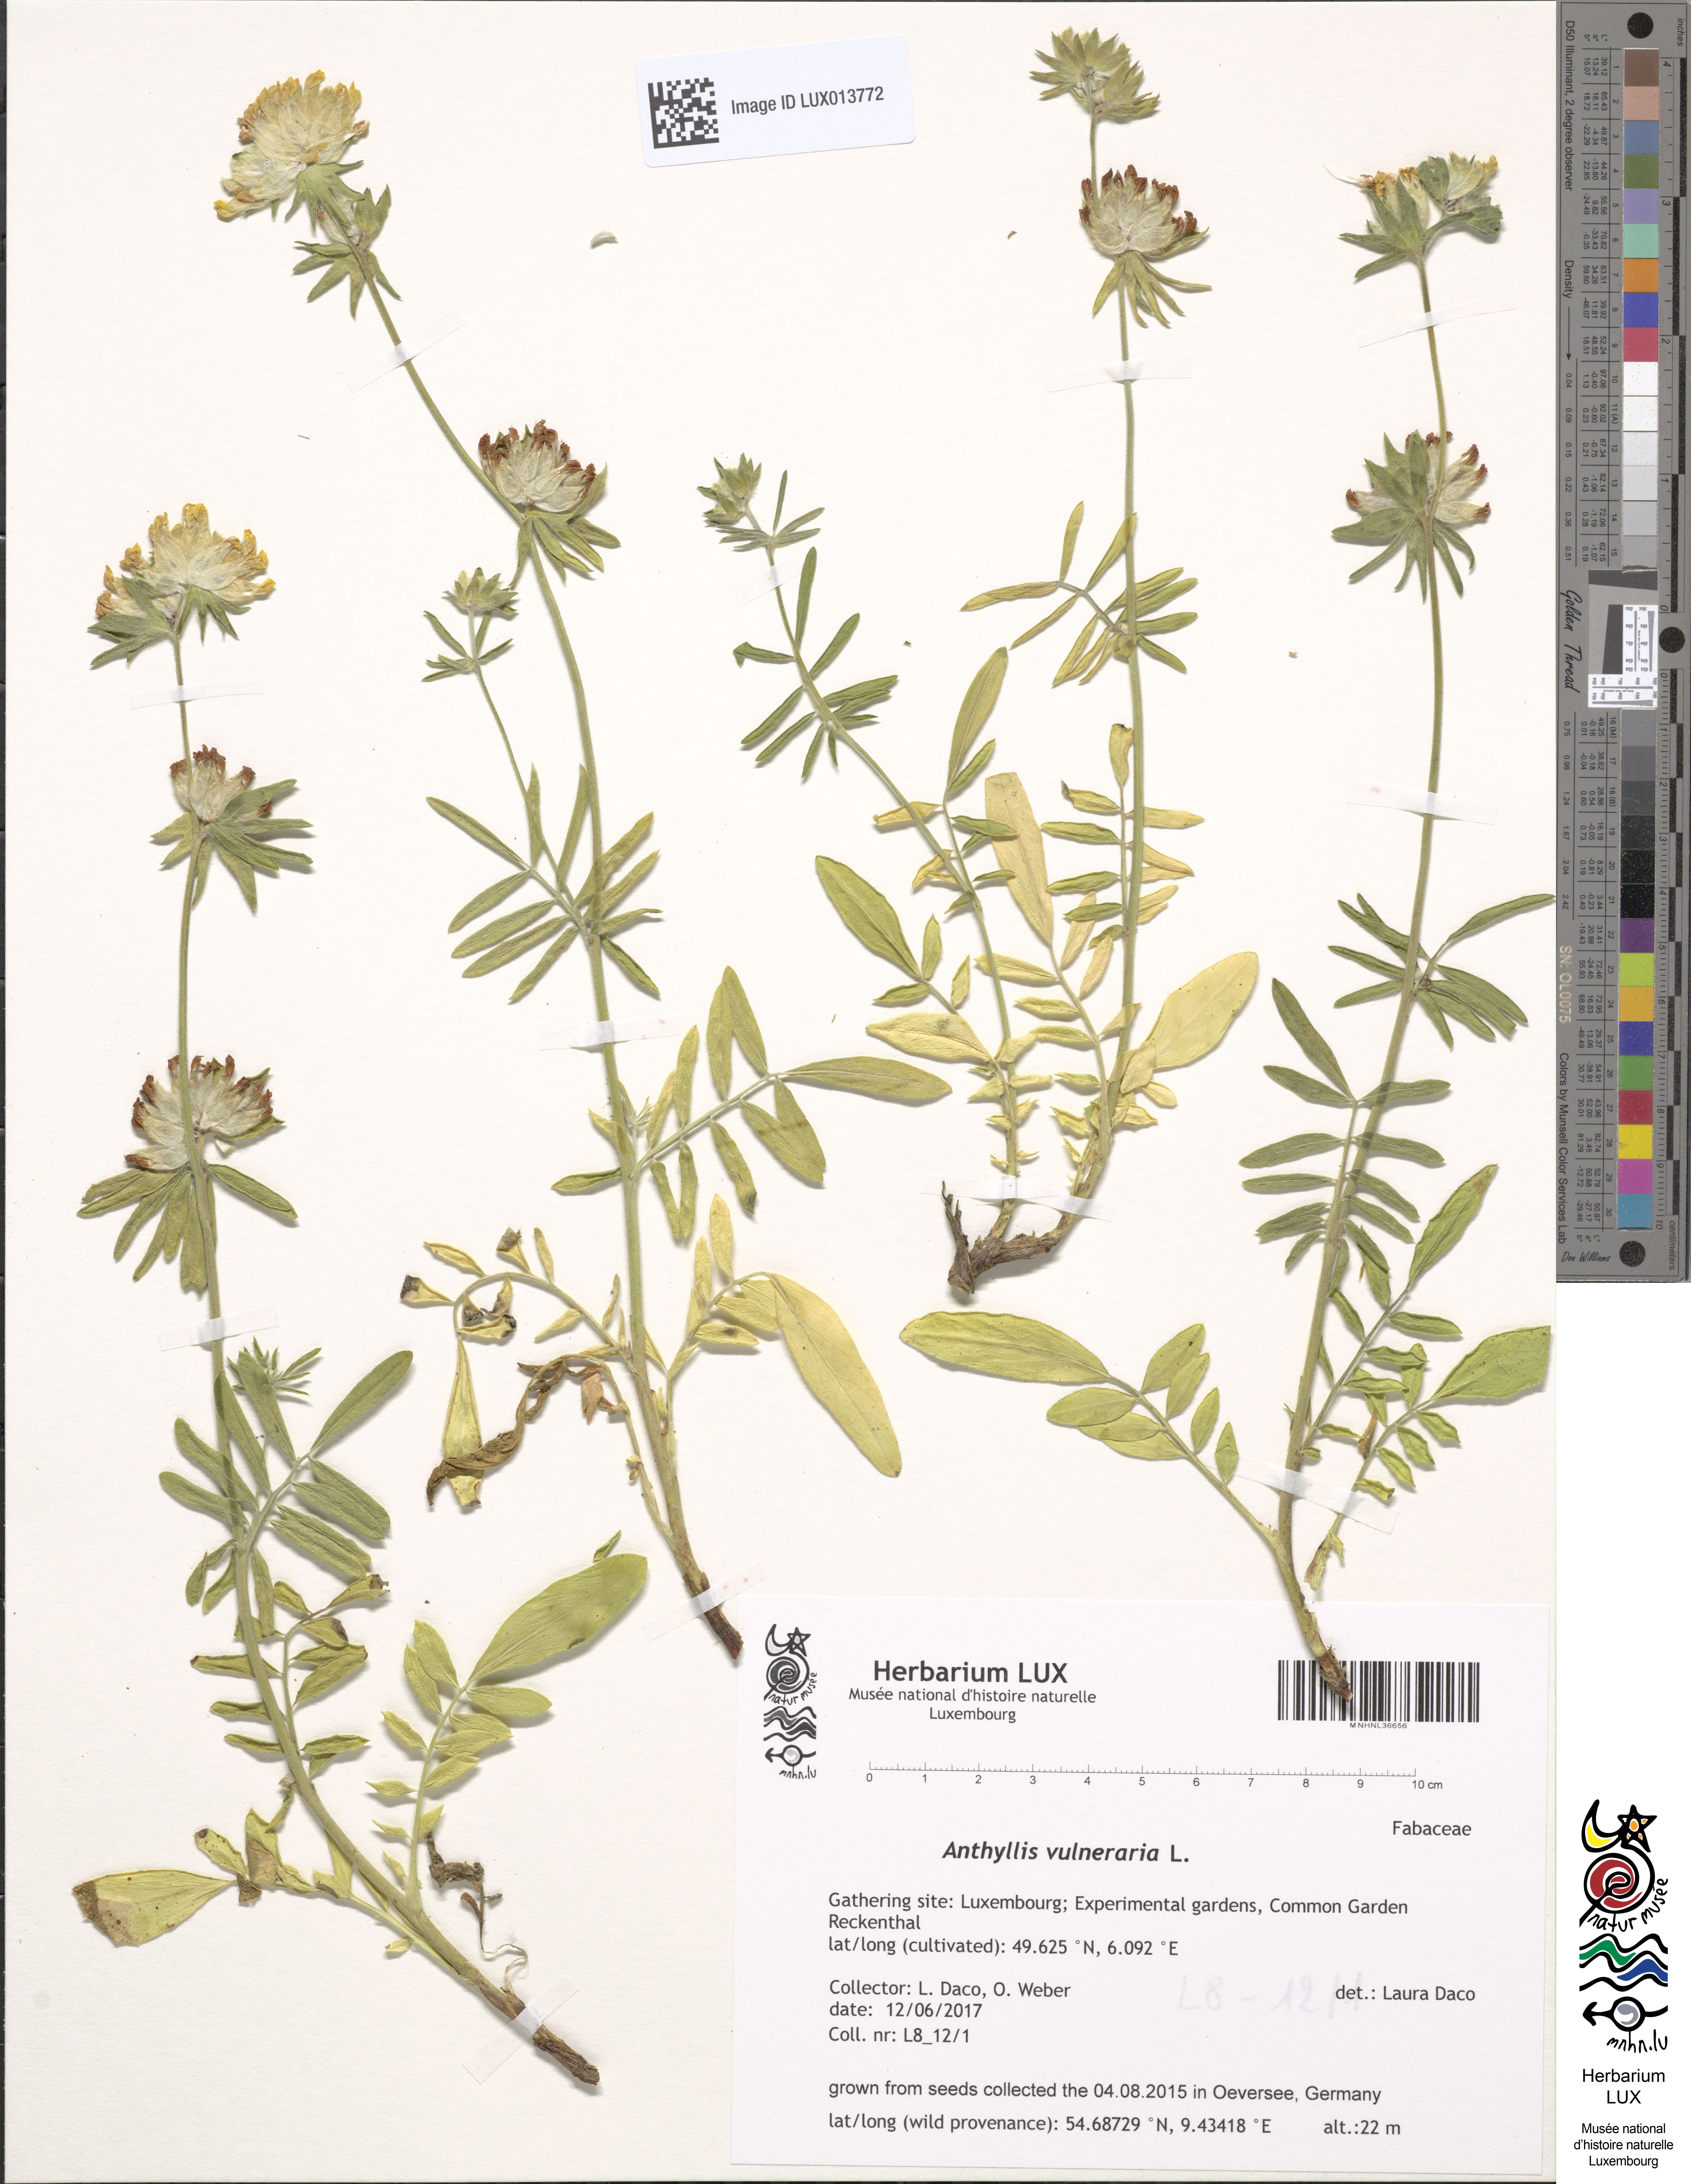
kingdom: Plantae
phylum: Tracheophyta
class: Magnoliopsida
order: Fabales
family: Fabaceae
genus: Anthyllis
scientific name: Anthyllis vulneraria
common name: Kidney vetch
